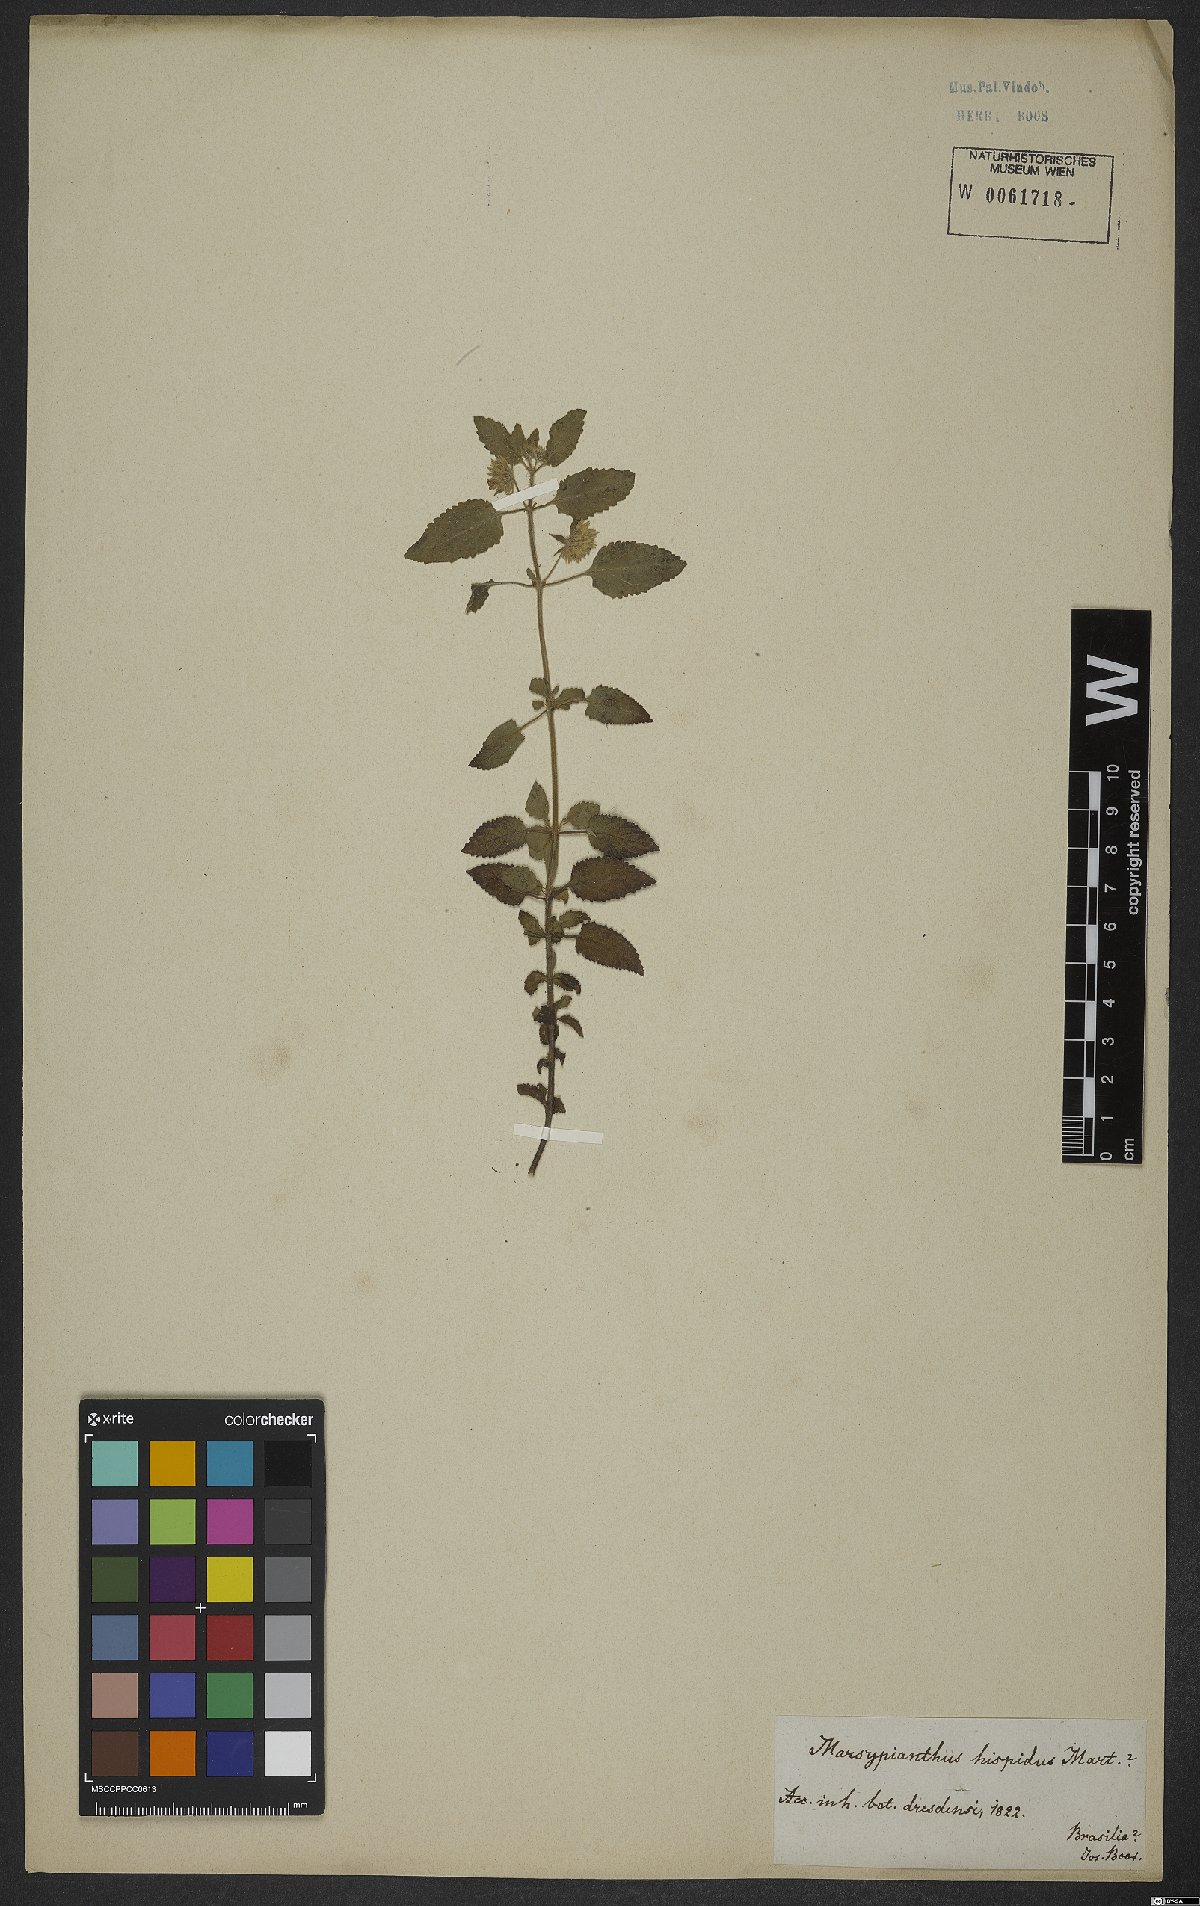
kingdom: Plantae
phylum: Tracheophyta
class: Magnoliopsida
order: Lamiales
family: Lamiaceae
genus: Marsypianthes
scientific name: Marsypianthes chamaedrys
